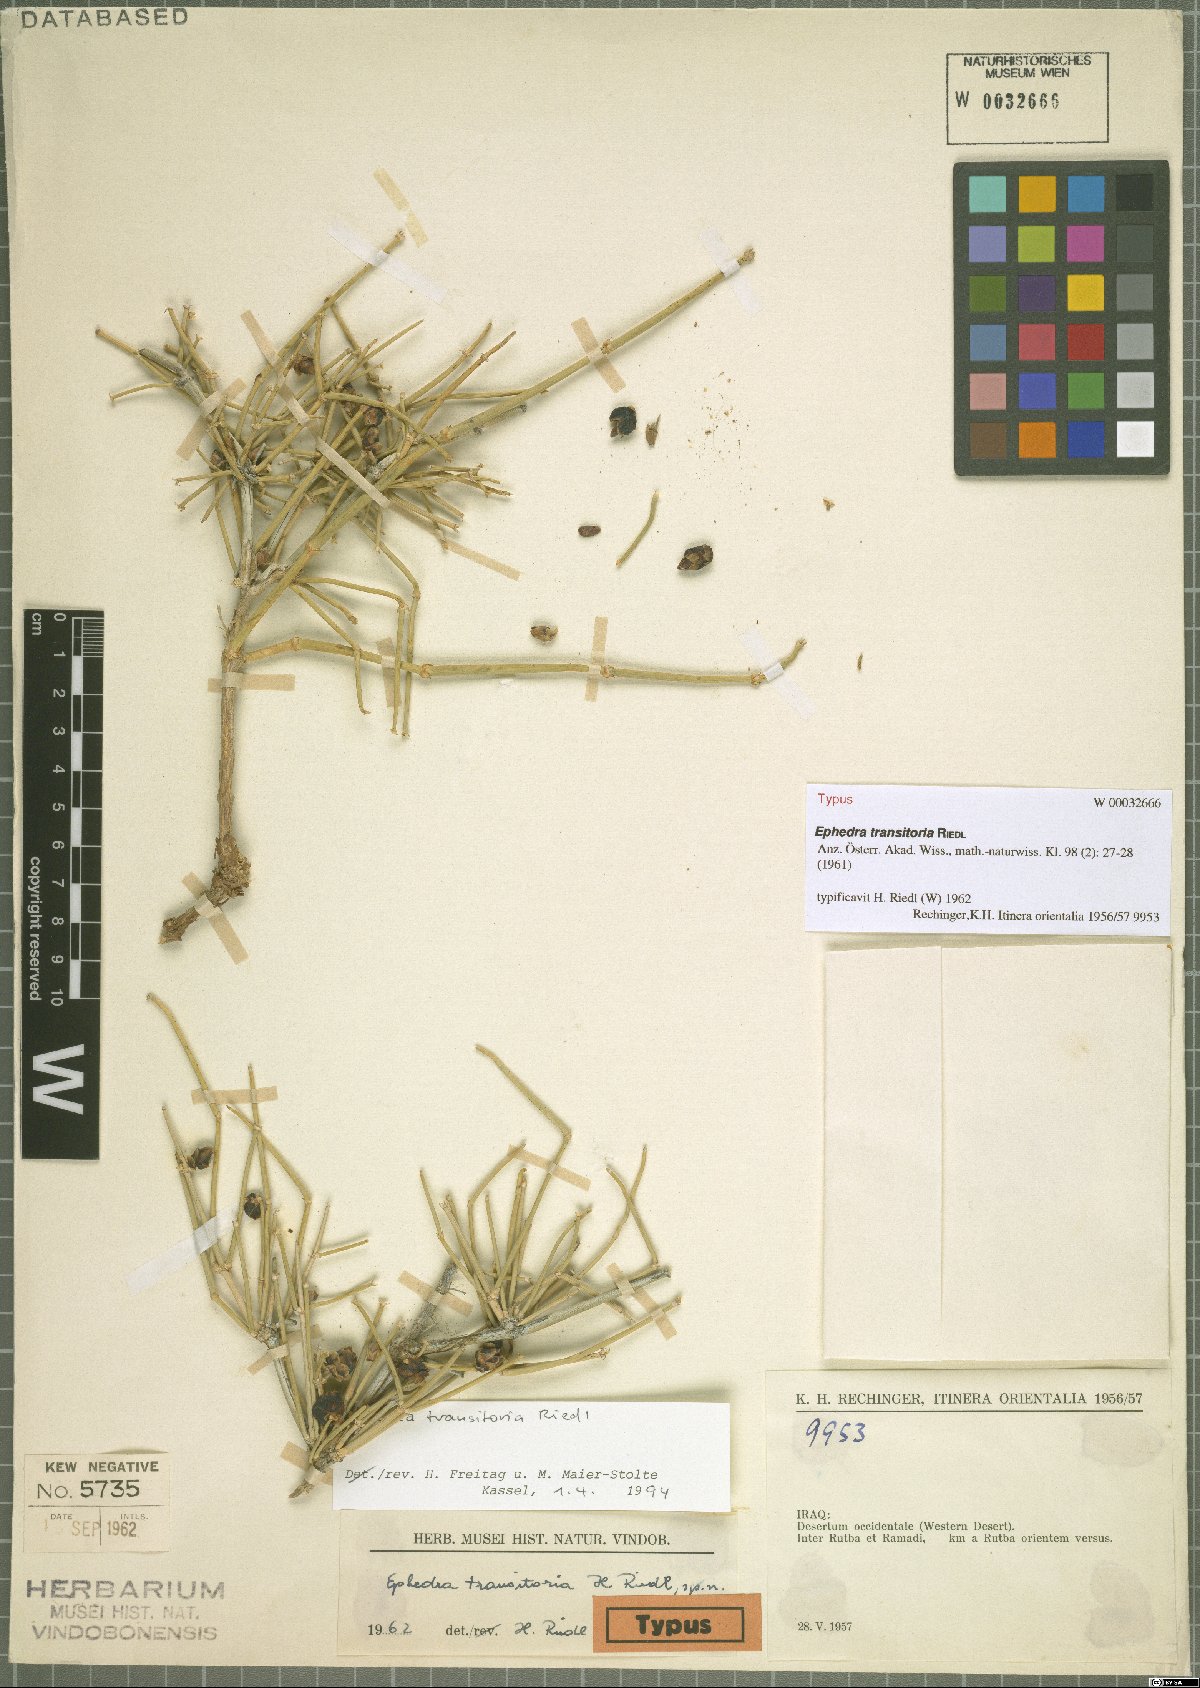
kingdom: Plantae
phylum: Tracheophyta
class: Gnetopsida
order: Ephedrales
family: Ephedraceae
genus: Ephedra
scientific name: Ephedra transitoria
